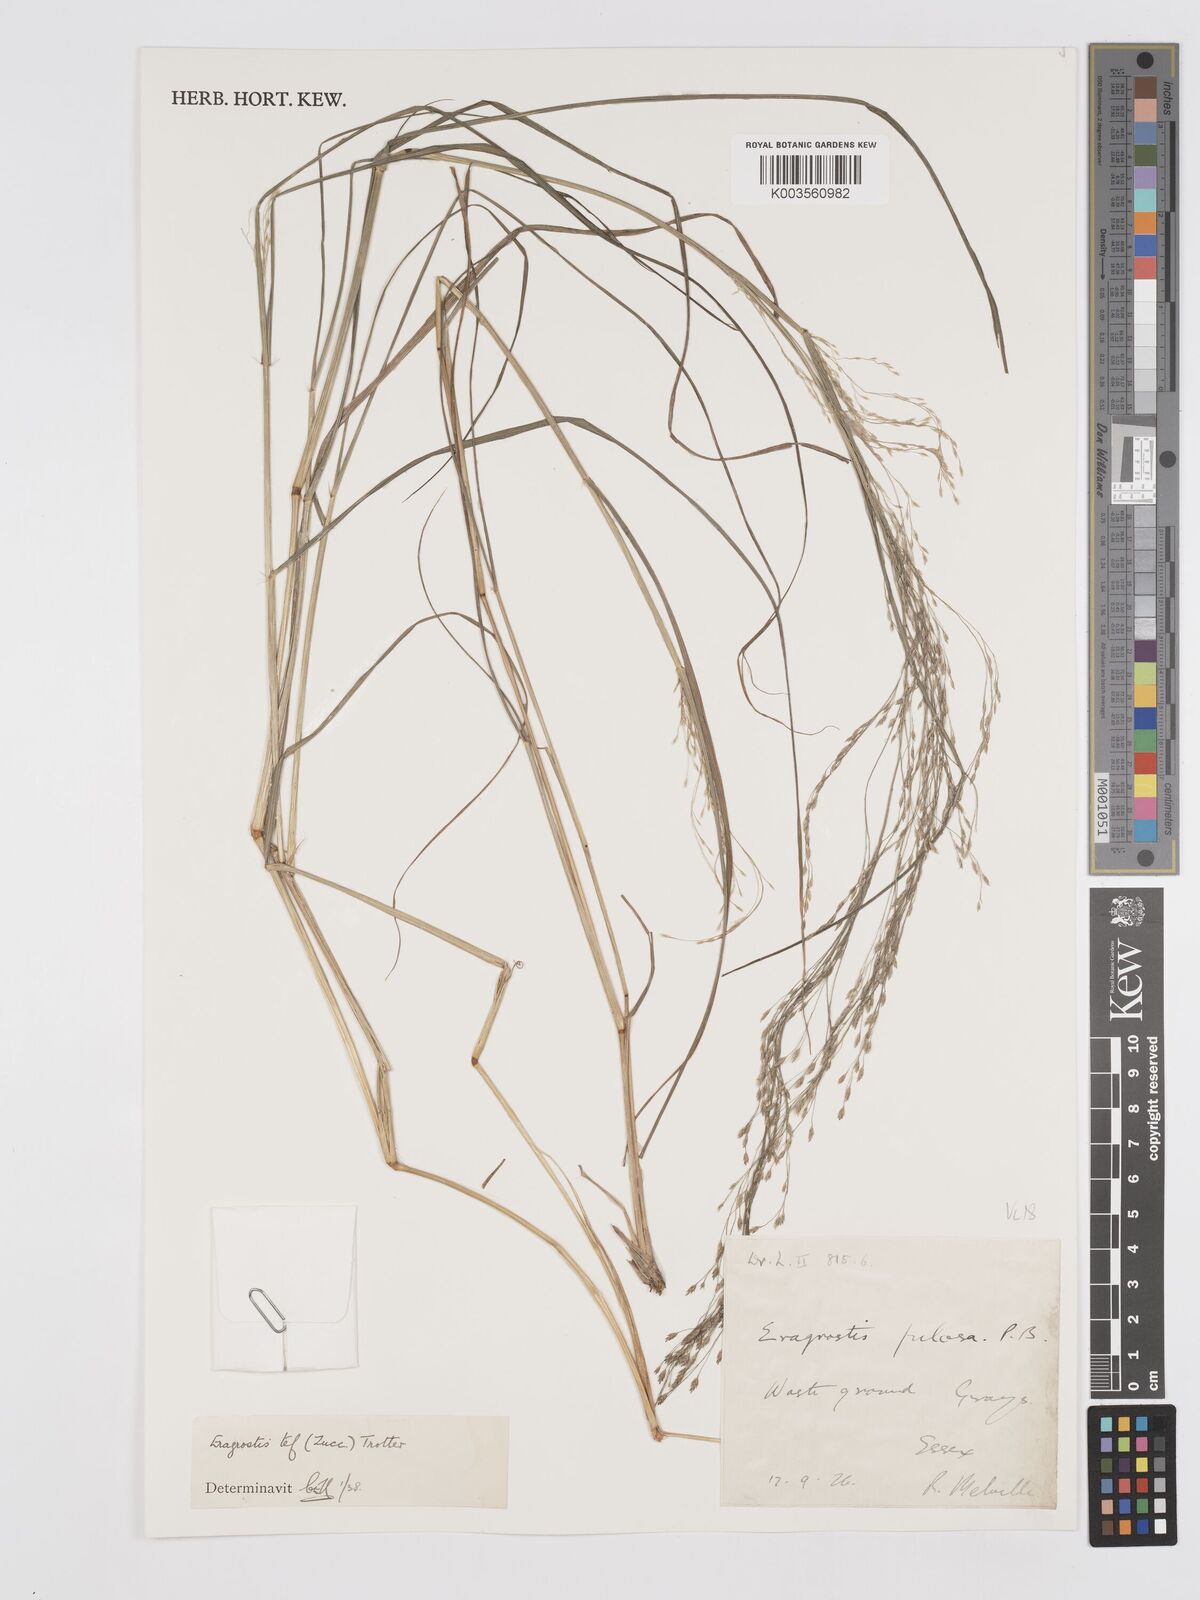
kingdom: Plantae
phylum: Tracheophyta
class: Liliopsida
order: Poales
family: Poaceae
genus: Eragrostis
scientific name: Eragrostis tef
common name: Teff
